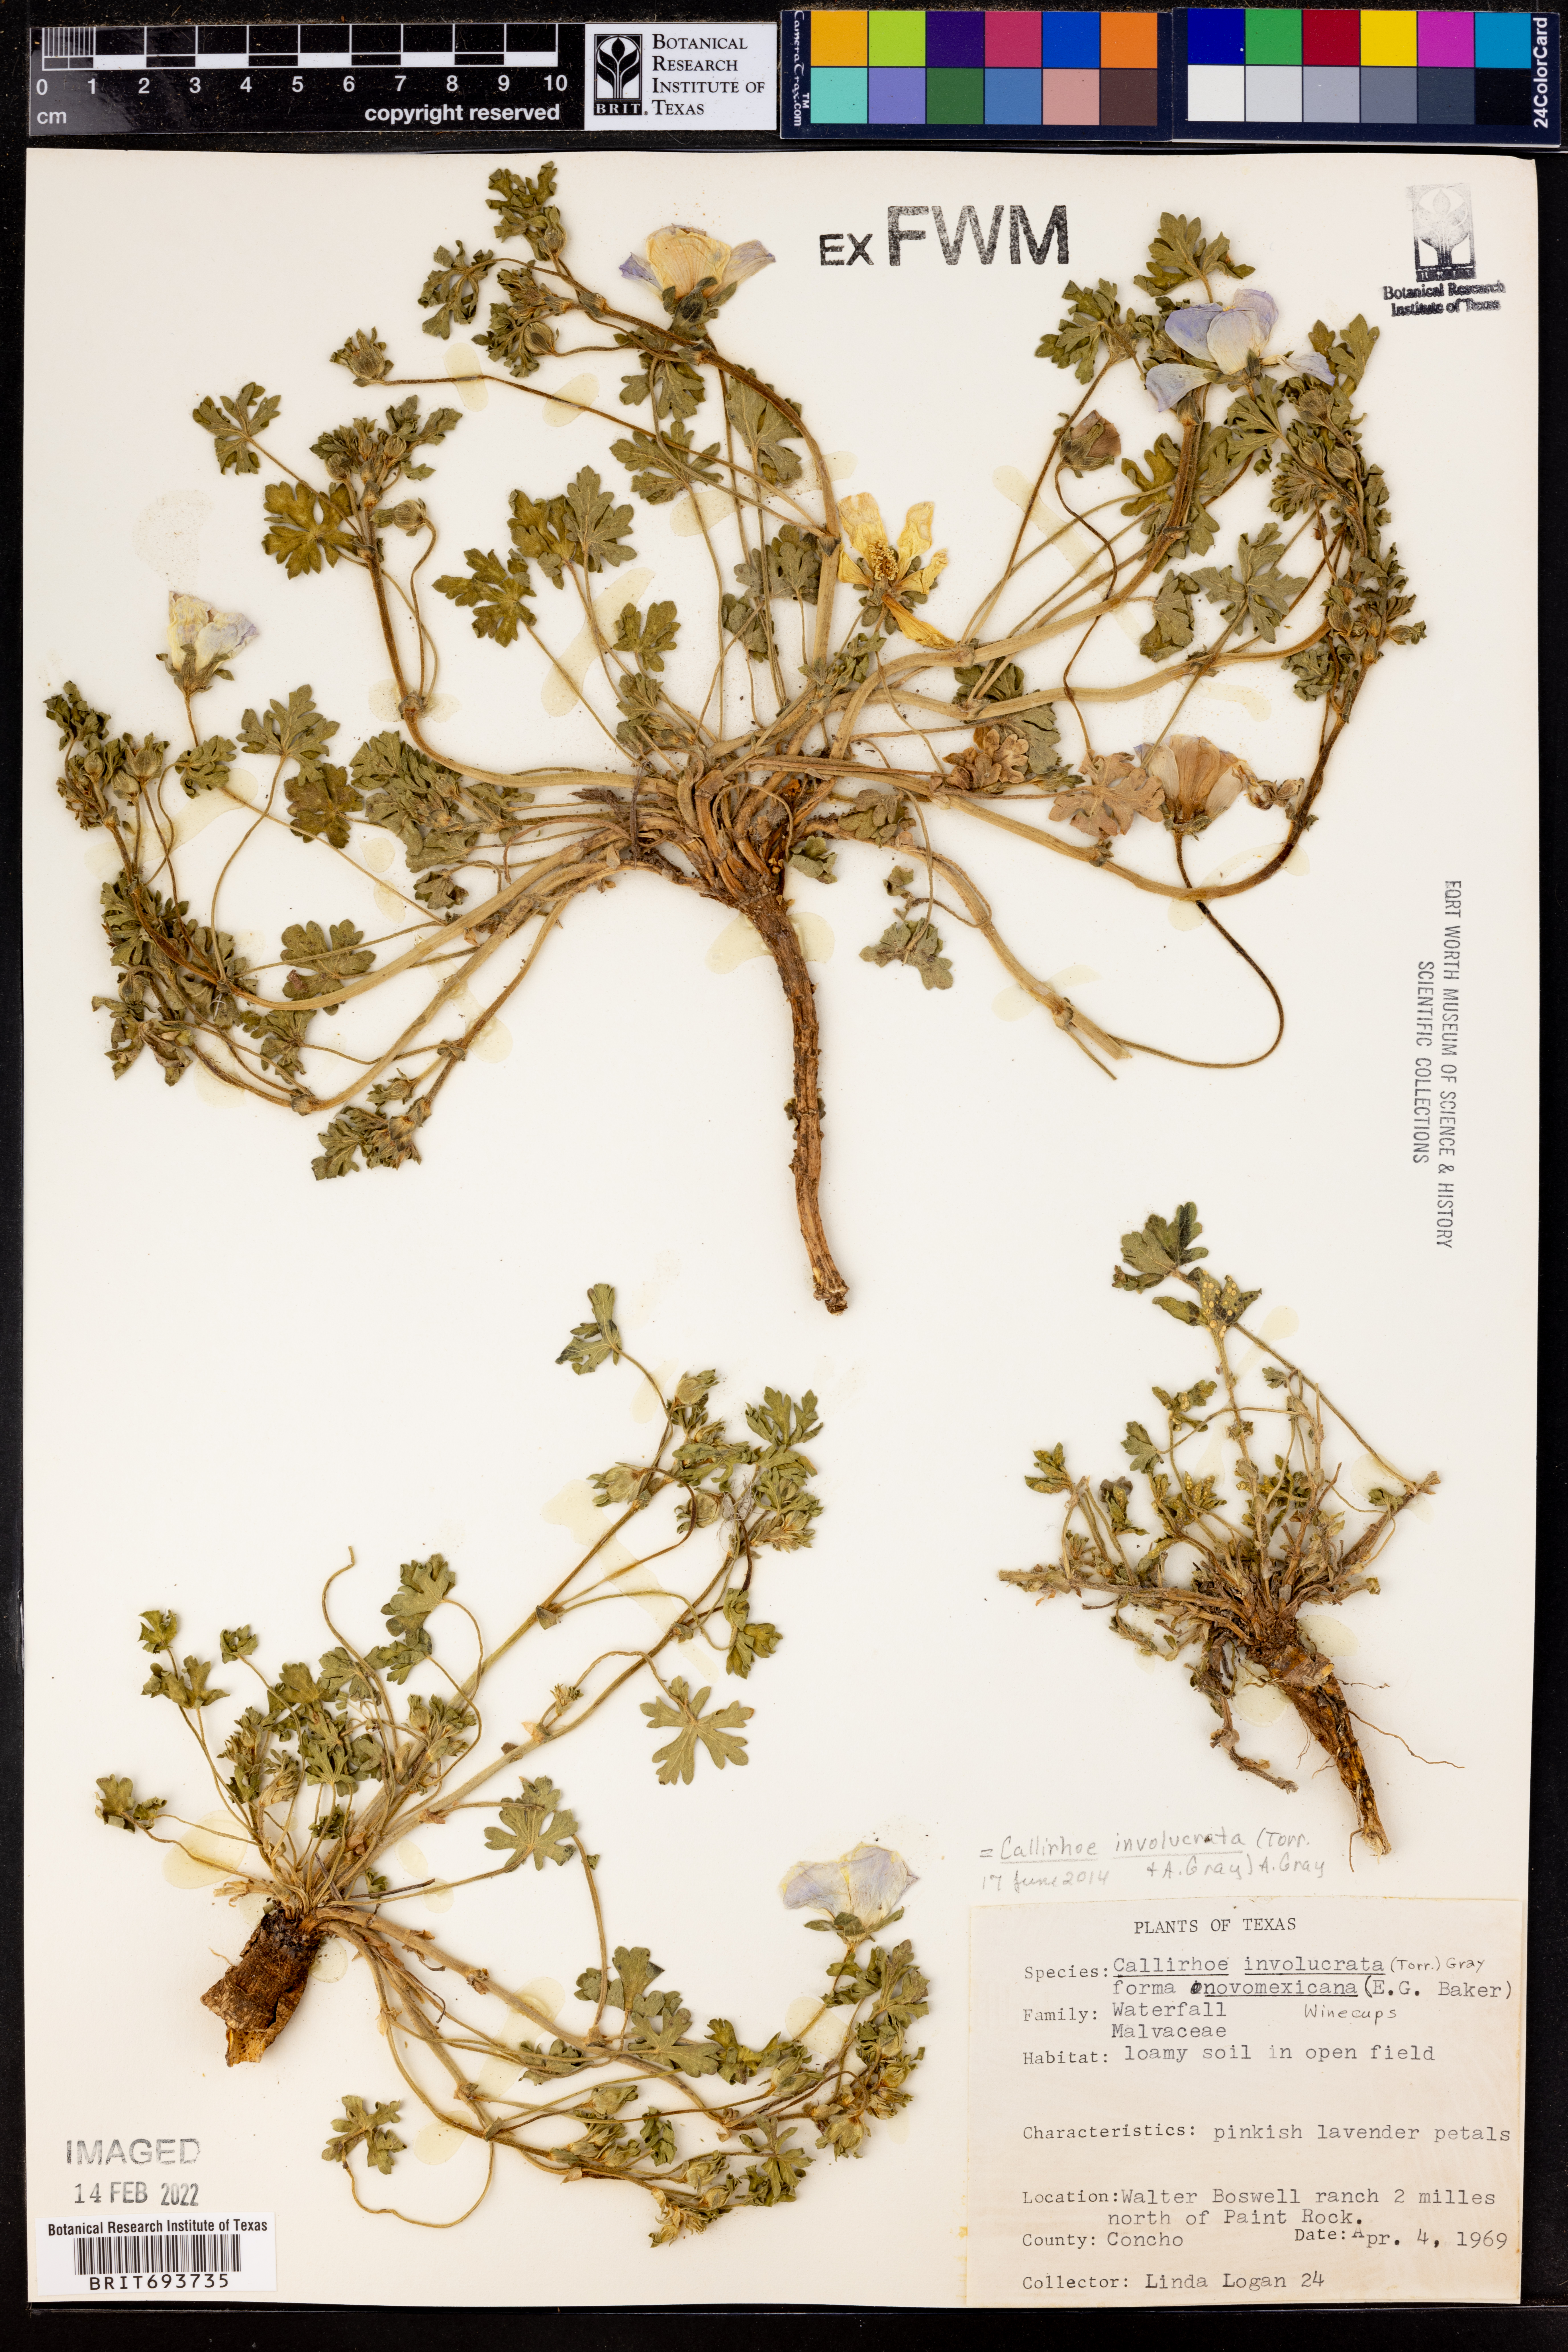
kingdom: Plantae
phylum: Tracheophyta
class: Magnoliopsida
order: Malvales
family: Malvaceae
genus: Callirhoe
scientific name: Callirhoe involucrata
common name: Purple poppy-mallow
